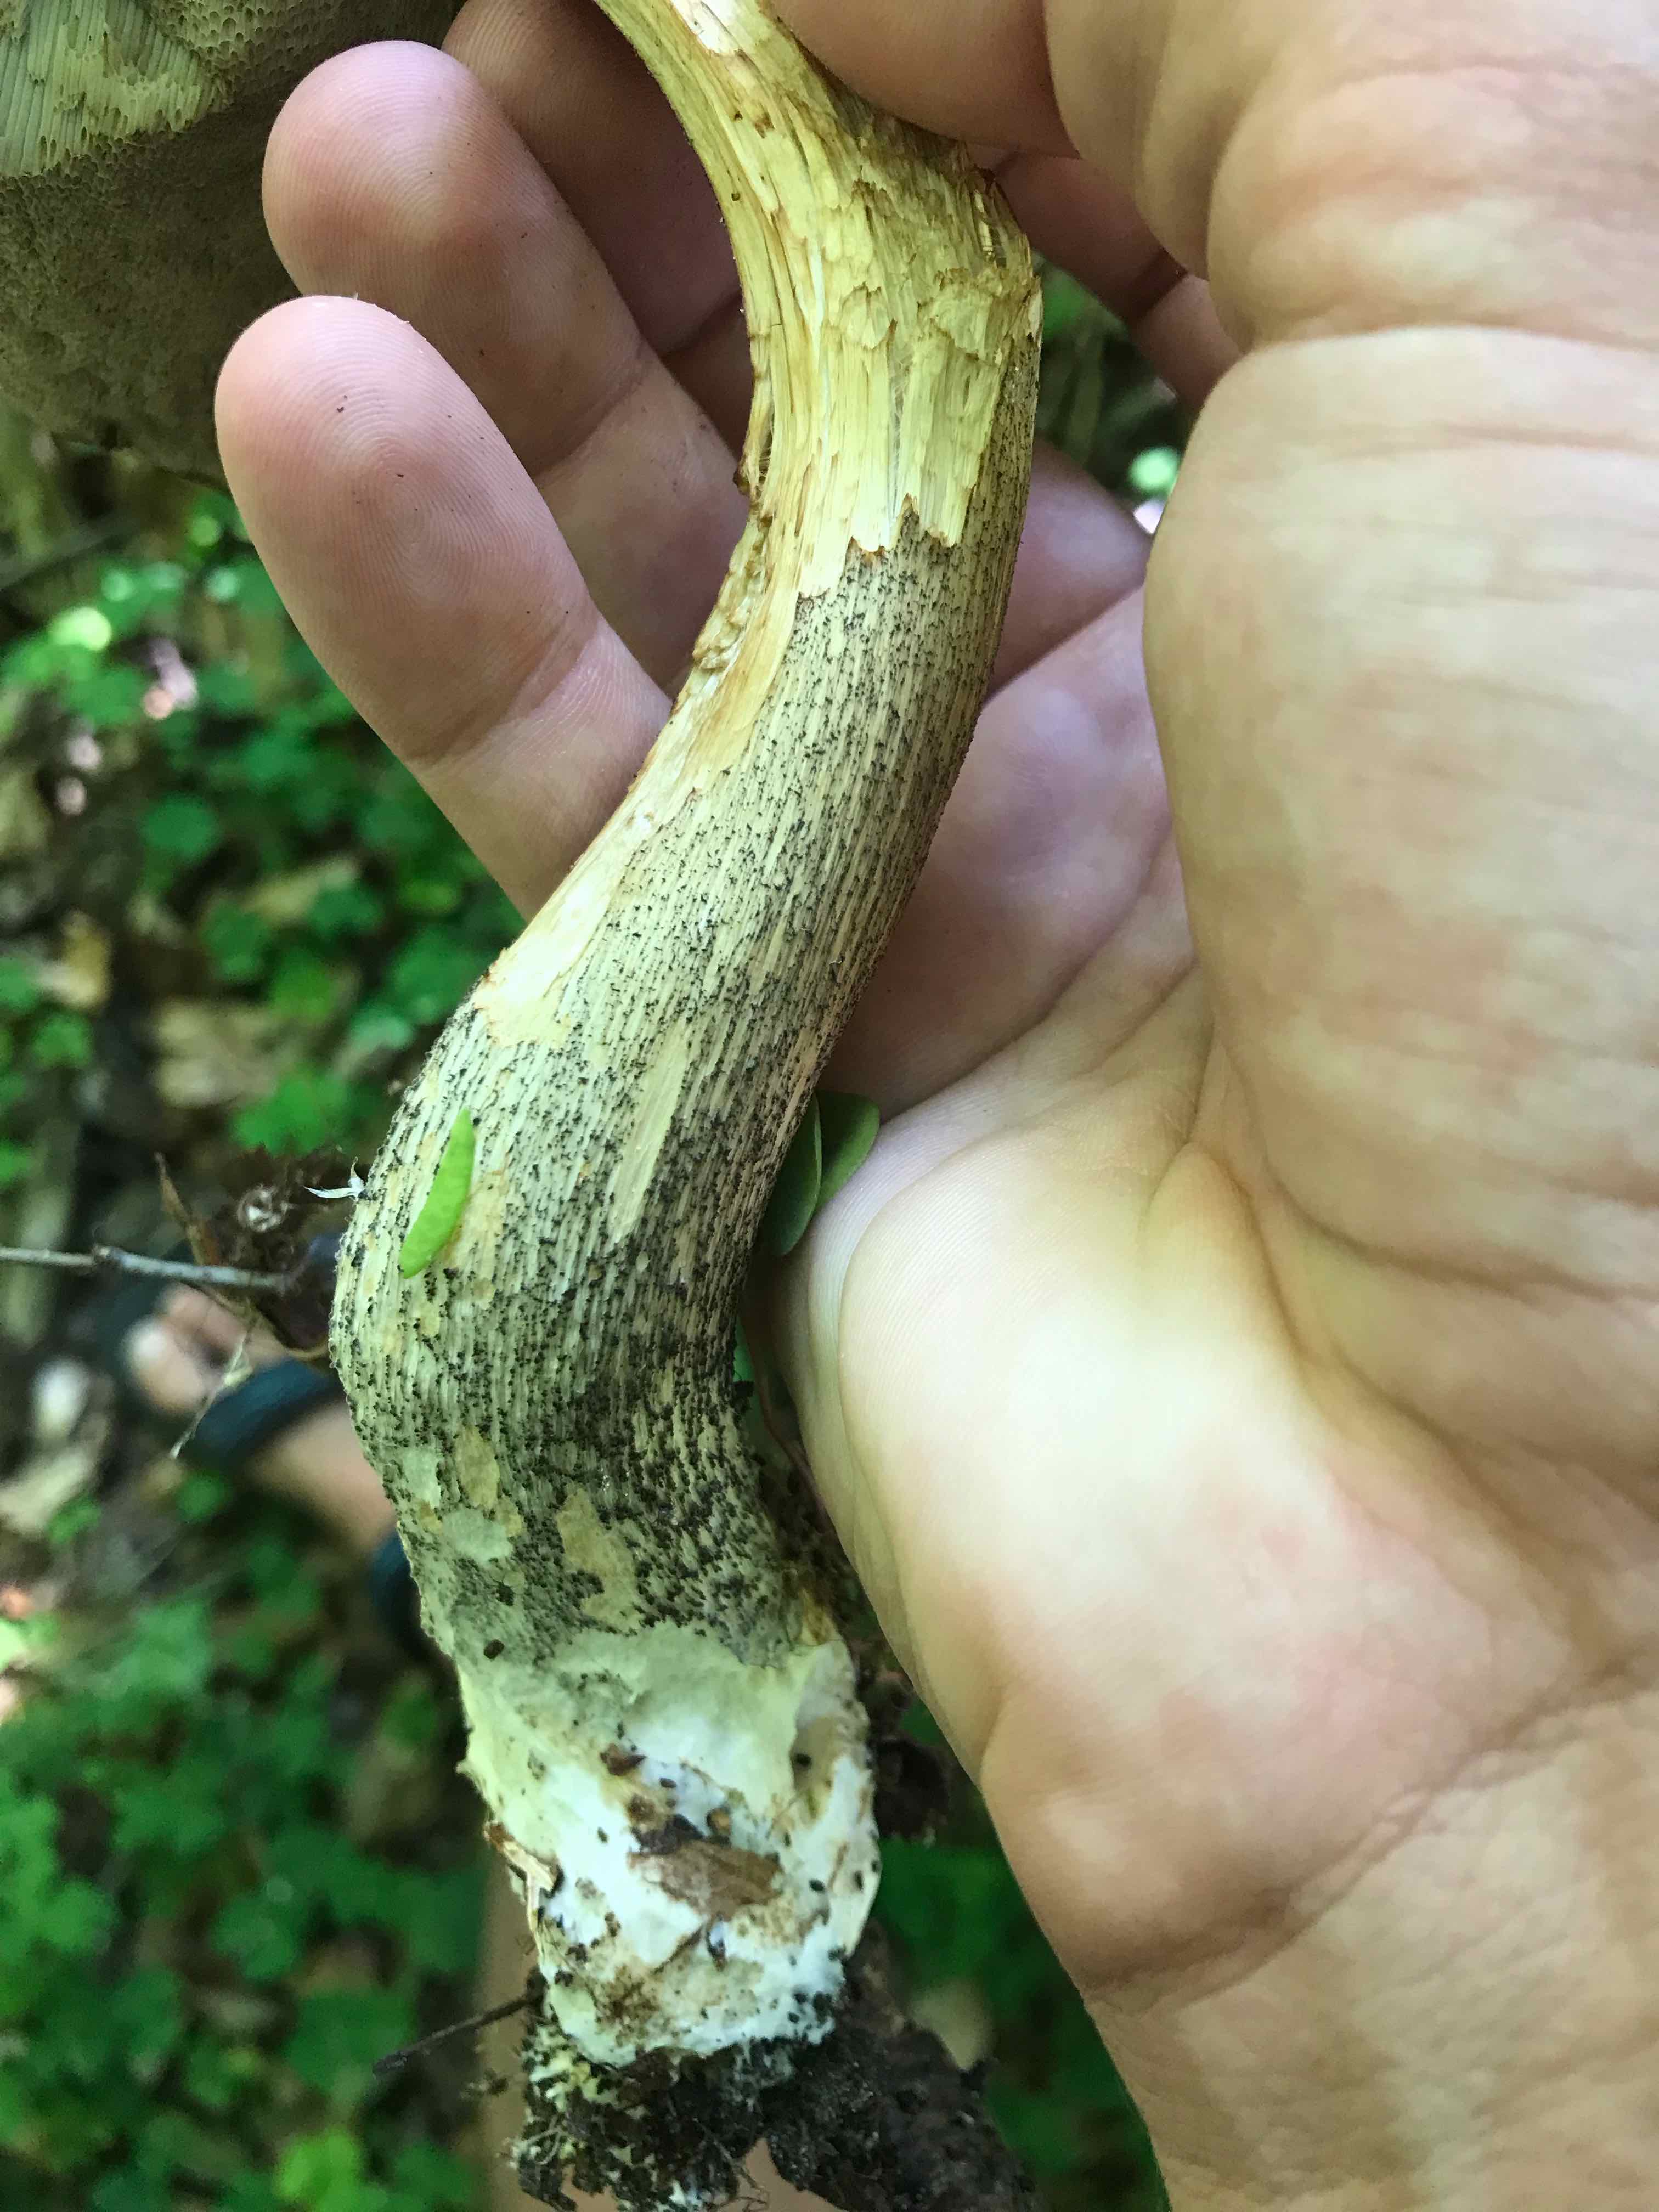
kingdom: Fungi
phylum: Basidiomycota
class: Agaricomycetes
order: Boletales
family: Boletaceae
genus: Leccinum
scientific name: Leccinum
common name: skælrørhat
